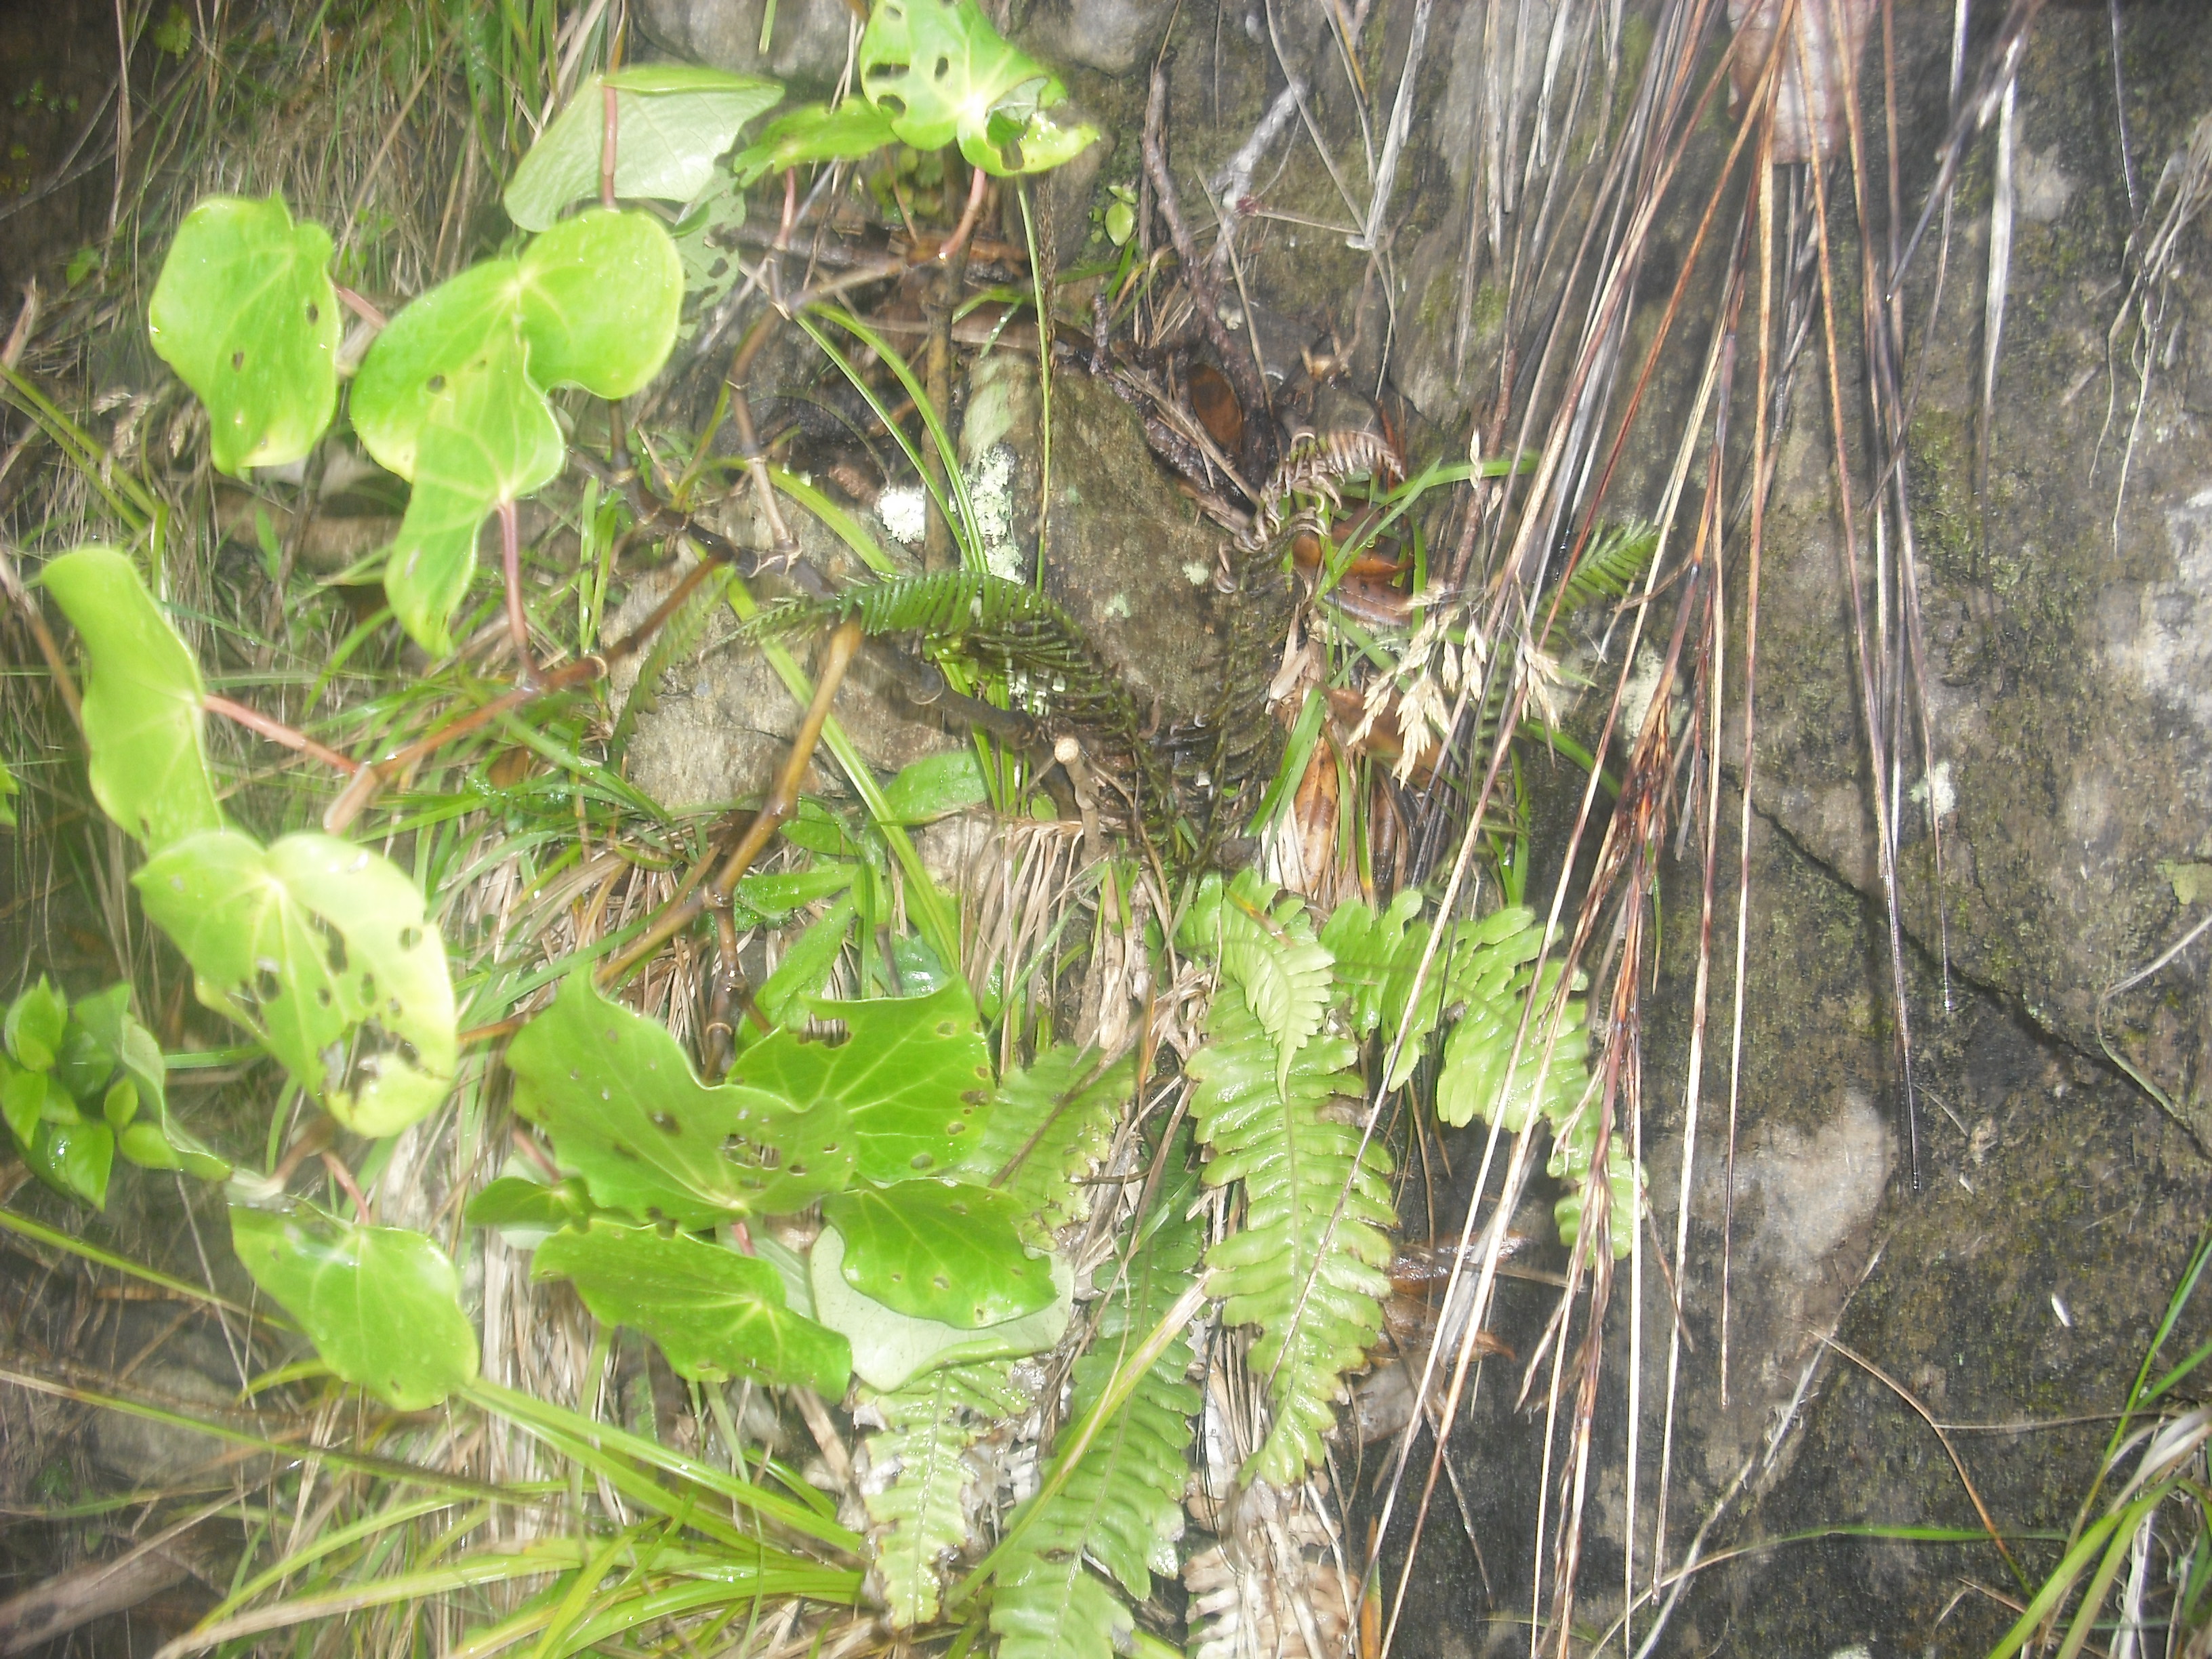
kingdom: Plantae
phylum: Tracheophyta
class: Polypodiopsida
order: Polypodiales
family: Blechnaceae
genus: Austroblechnum
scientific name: Austroblechnum norfolkianum
